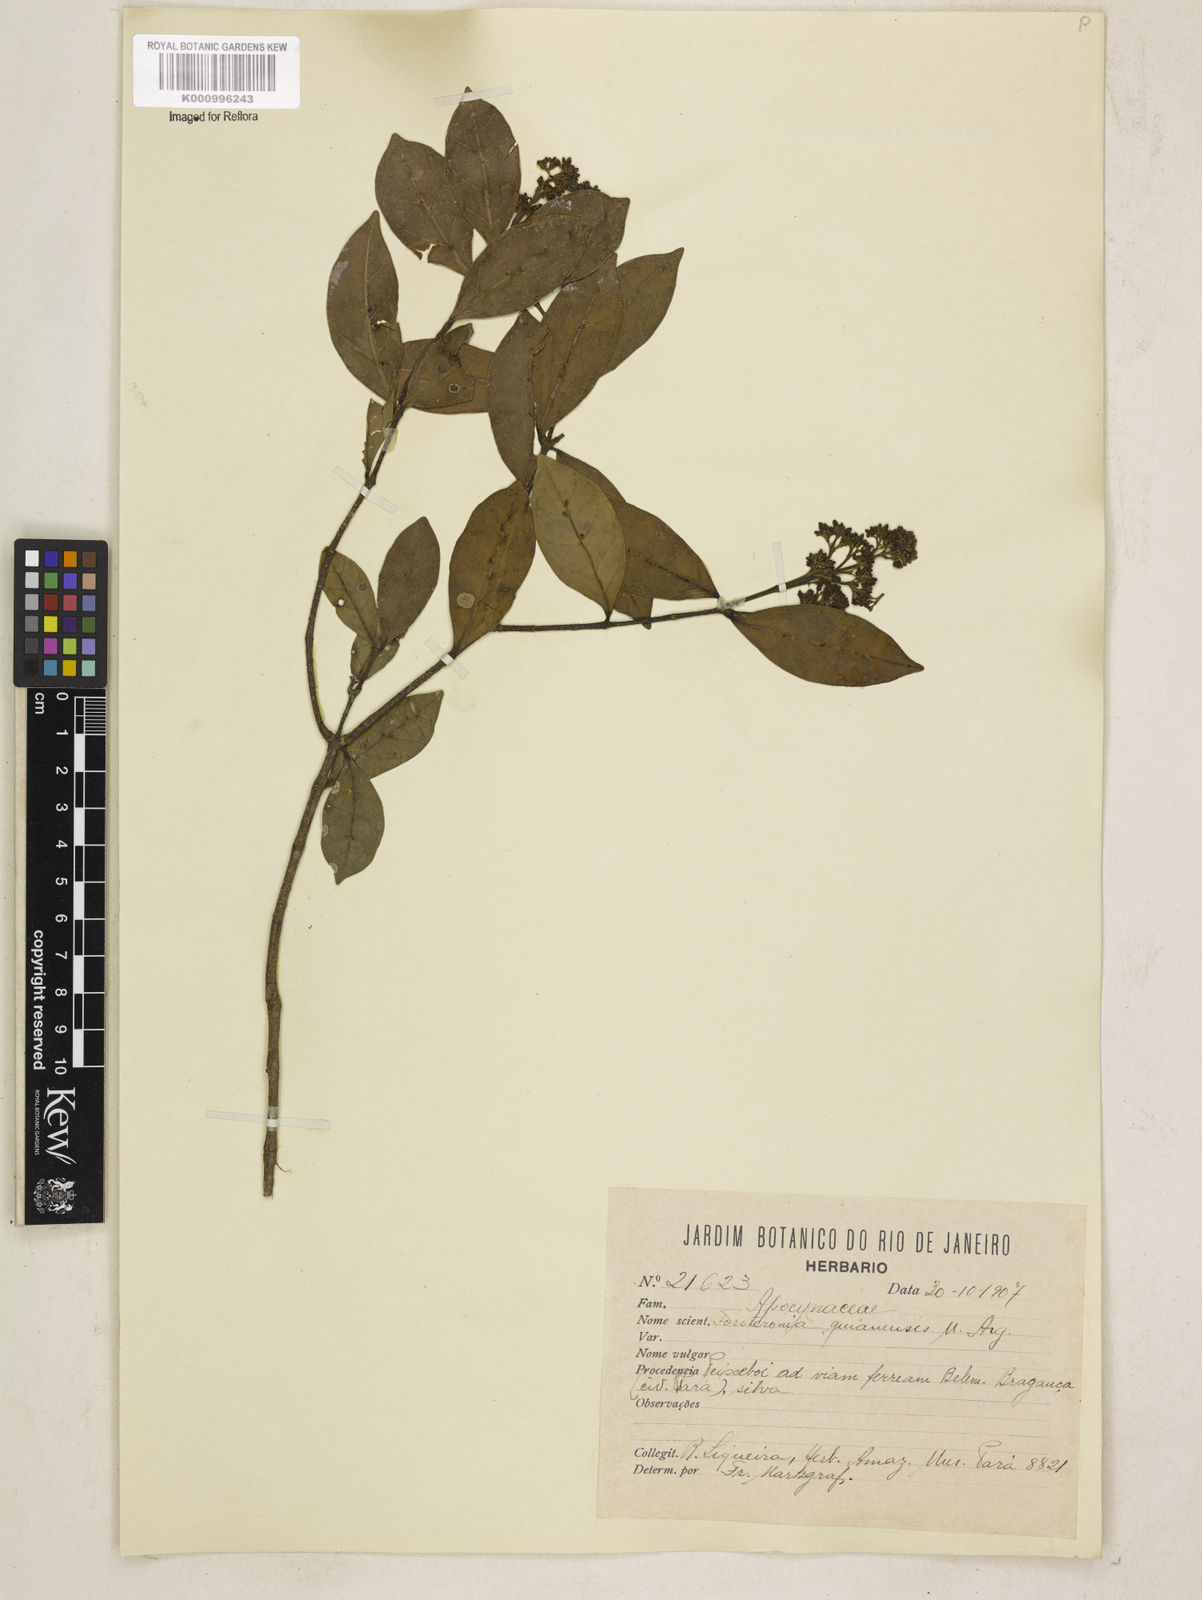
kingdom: Plantae
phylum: Tracheophyta
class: Magnoliopsida
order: Gentianales
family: Apocynaceae
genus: Forsteronia
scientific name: Forsteronia
